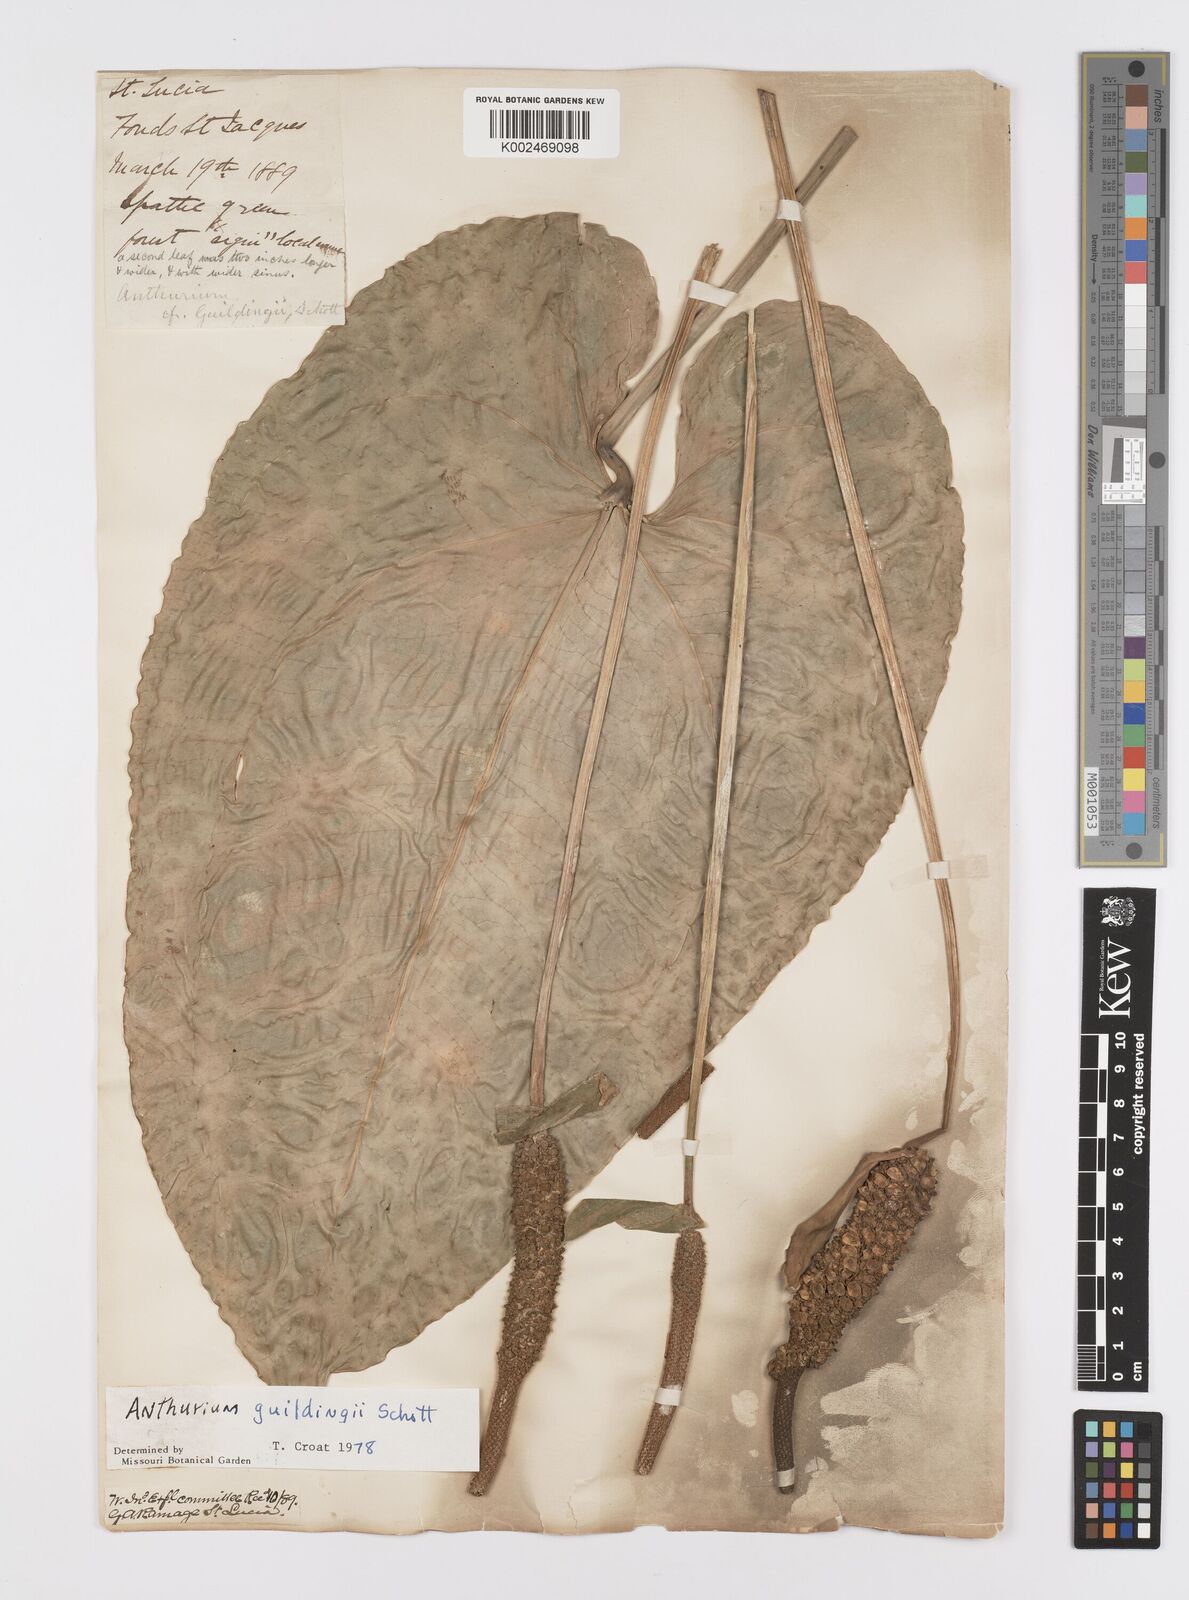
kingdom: Plantae
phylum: Tracheophyta
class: Liliopsida
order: Alismatales
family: Araceae
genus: Anthurium
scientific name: Anthurium cordatum
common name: Monkey tail
